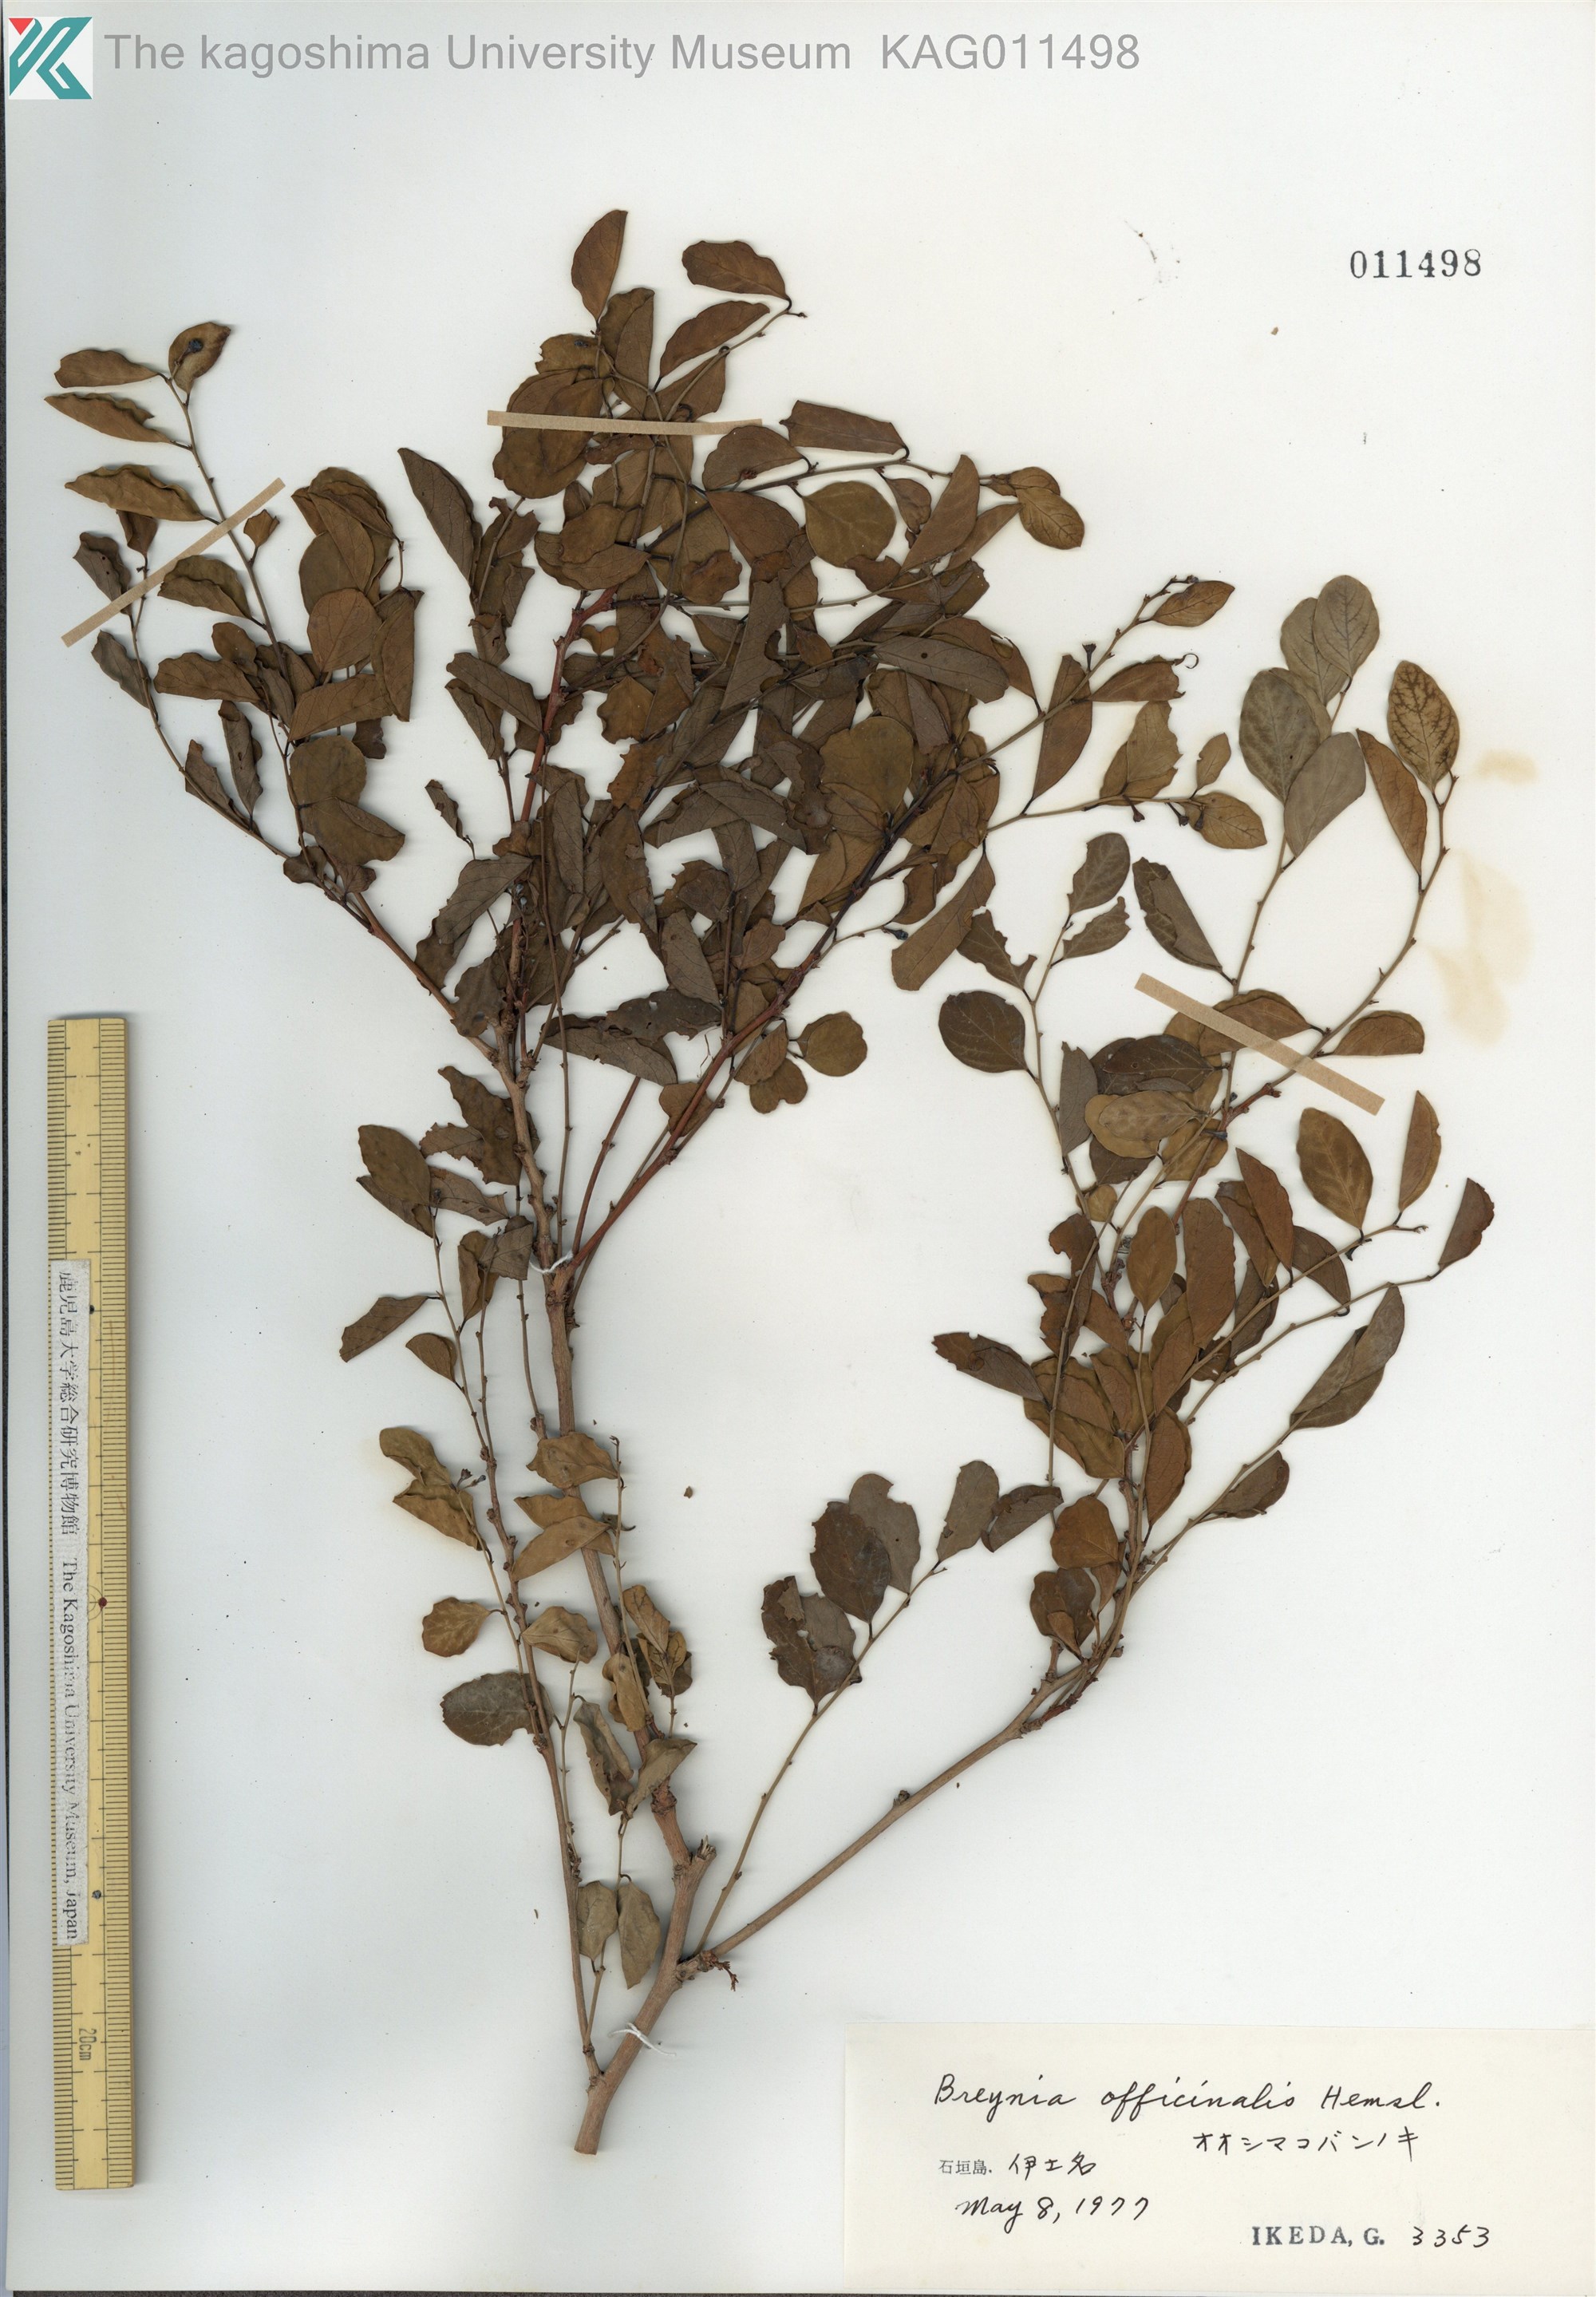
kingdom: Plantae
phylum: Tracheophyta
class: Magnoliopsida
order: Malpighiales
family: Phyllanthaceae
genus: Breynia
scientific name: Breynia vitis-idaea
